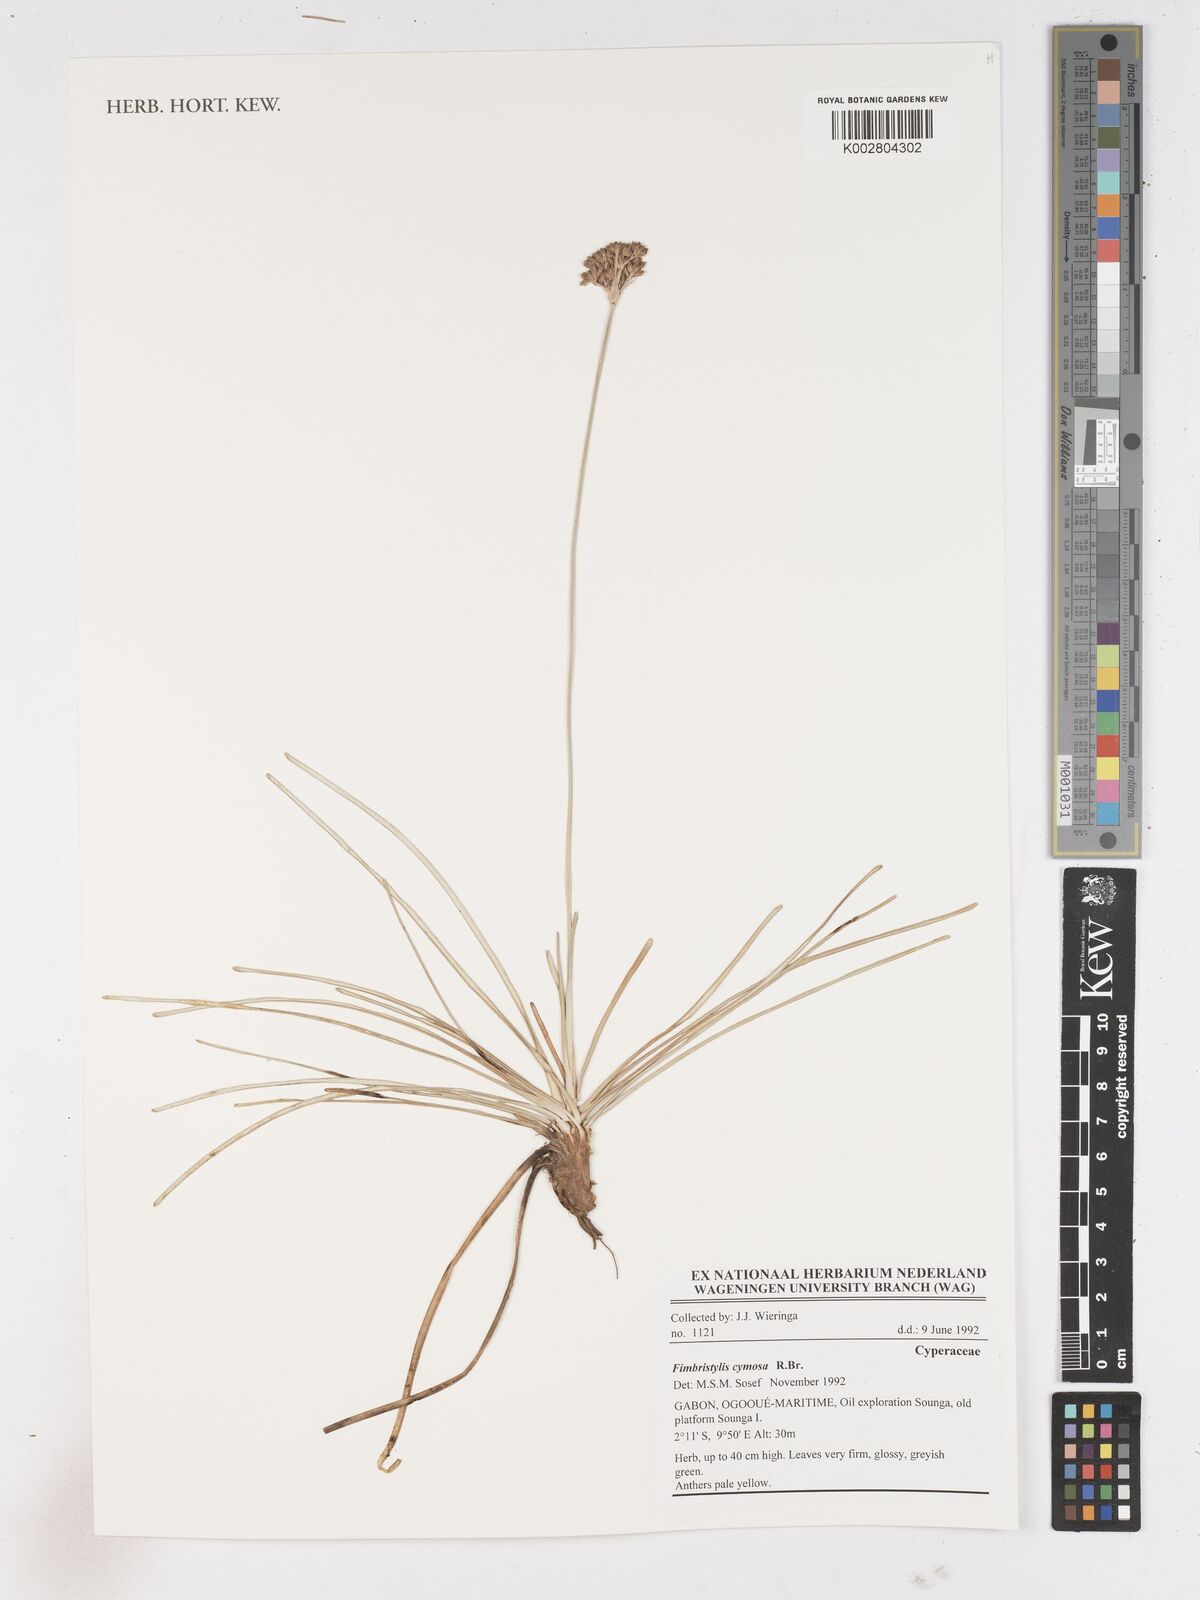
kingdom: Plantae
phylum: Tracheophyta
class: Liliopsida
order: Poales
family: Cyperaceae
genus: Fimbristylis
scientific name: Fimbristylis cymosa
